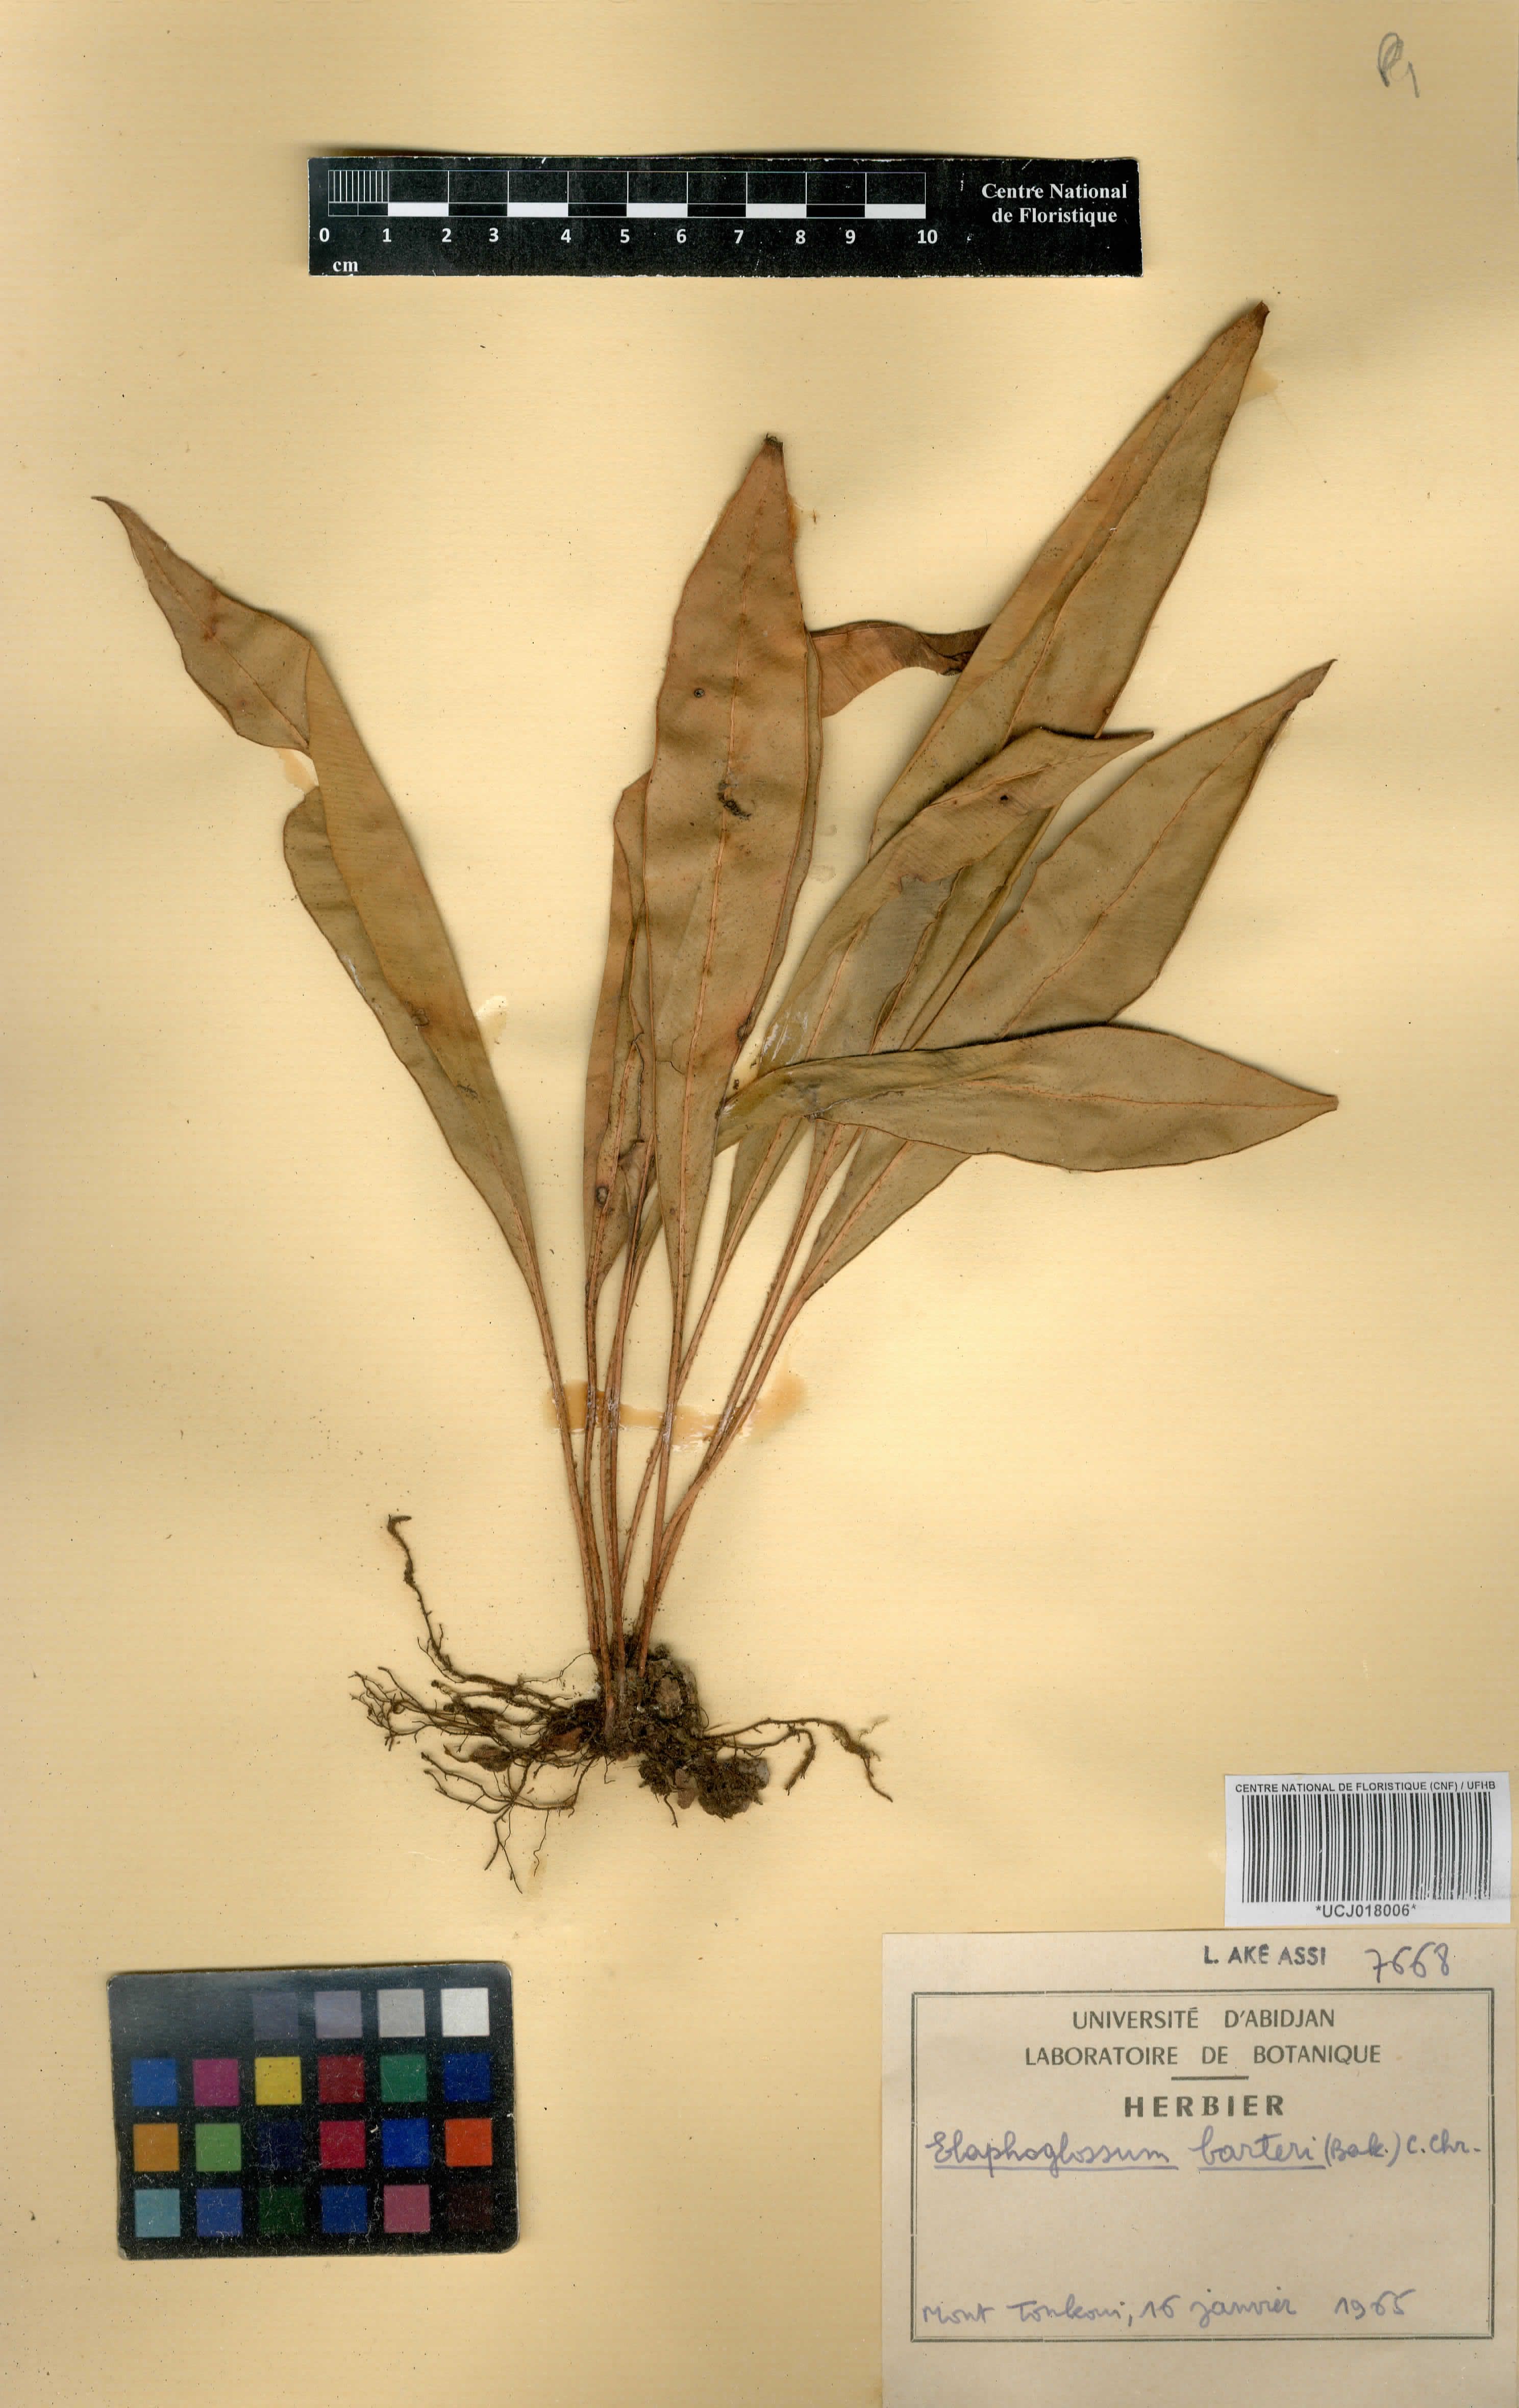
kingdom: Plantae
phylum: Tracheophyta
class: Polypodiopsida
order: Polypodiales
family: Dryopteridaceae
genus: Elaphoglossum
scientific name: Elaphoglossum barteri
